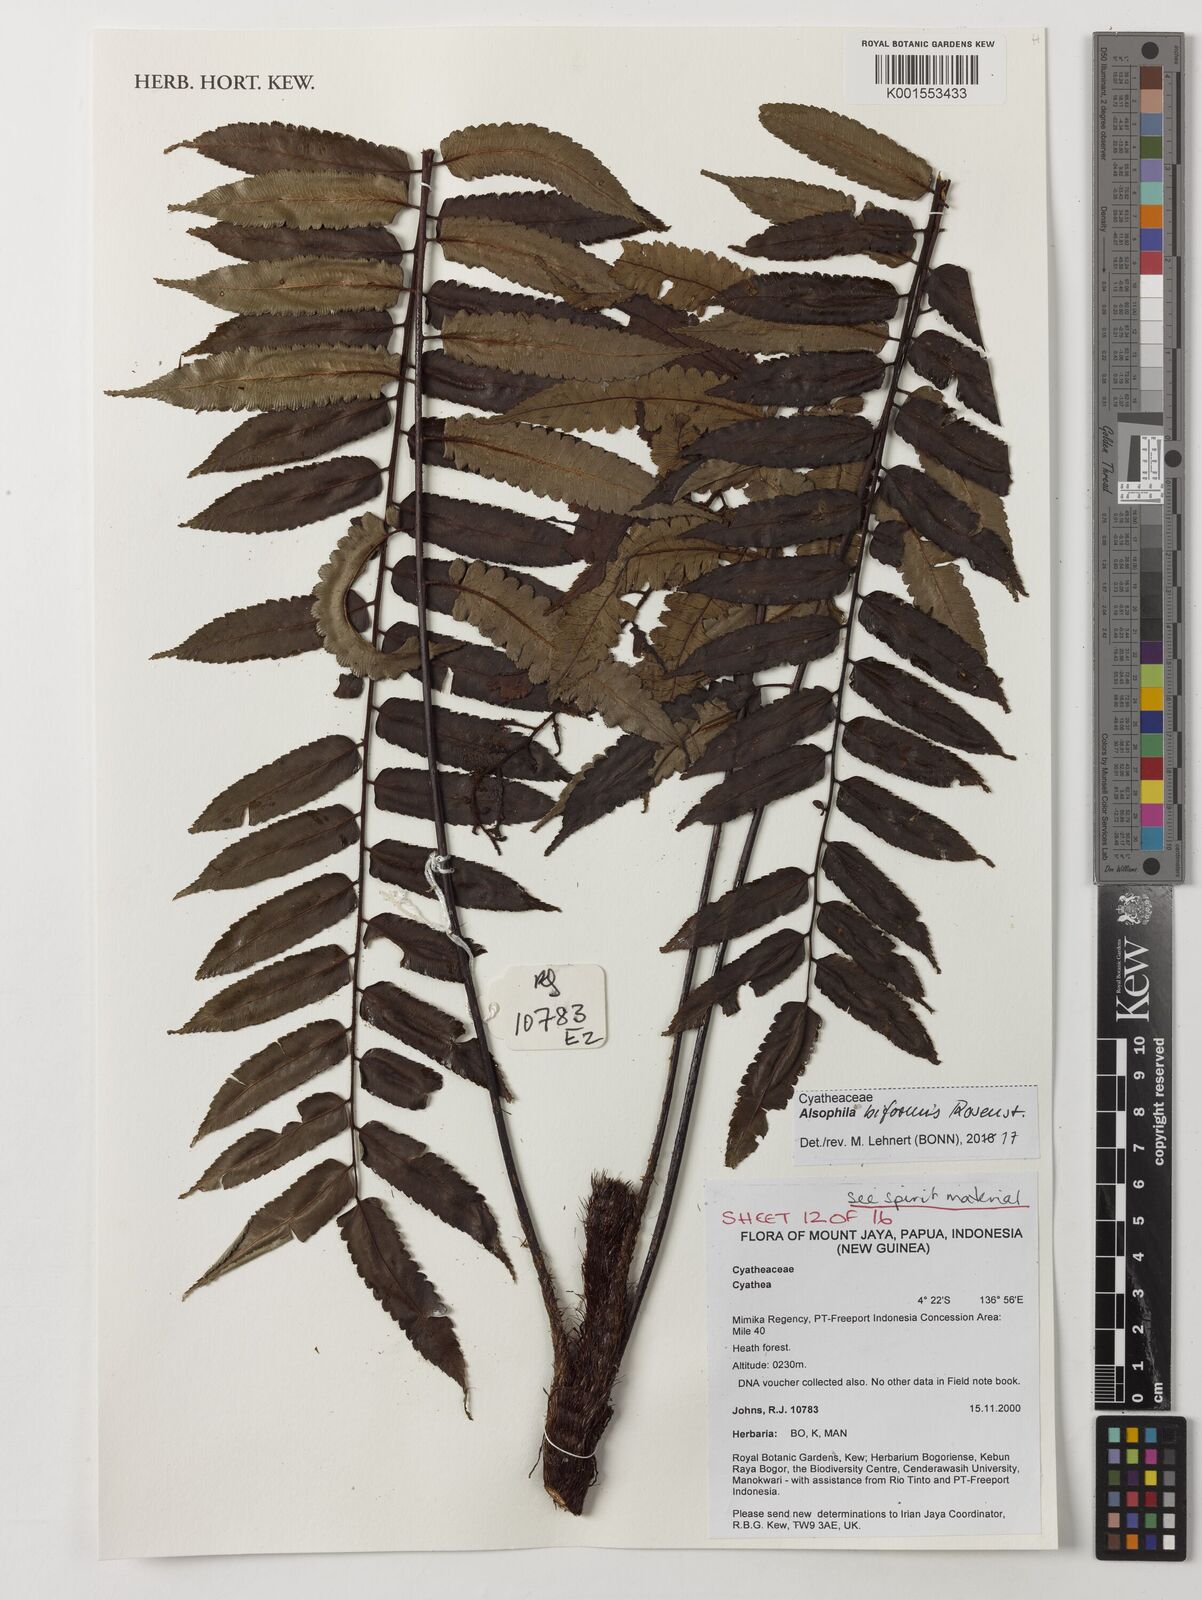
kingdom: Plantae
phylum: Tracheophyta
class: Polypodiopsida
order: Cyatheales
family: Cyatheaceae
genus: Gymnosphaera
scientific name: Gymnosphaera biformis
